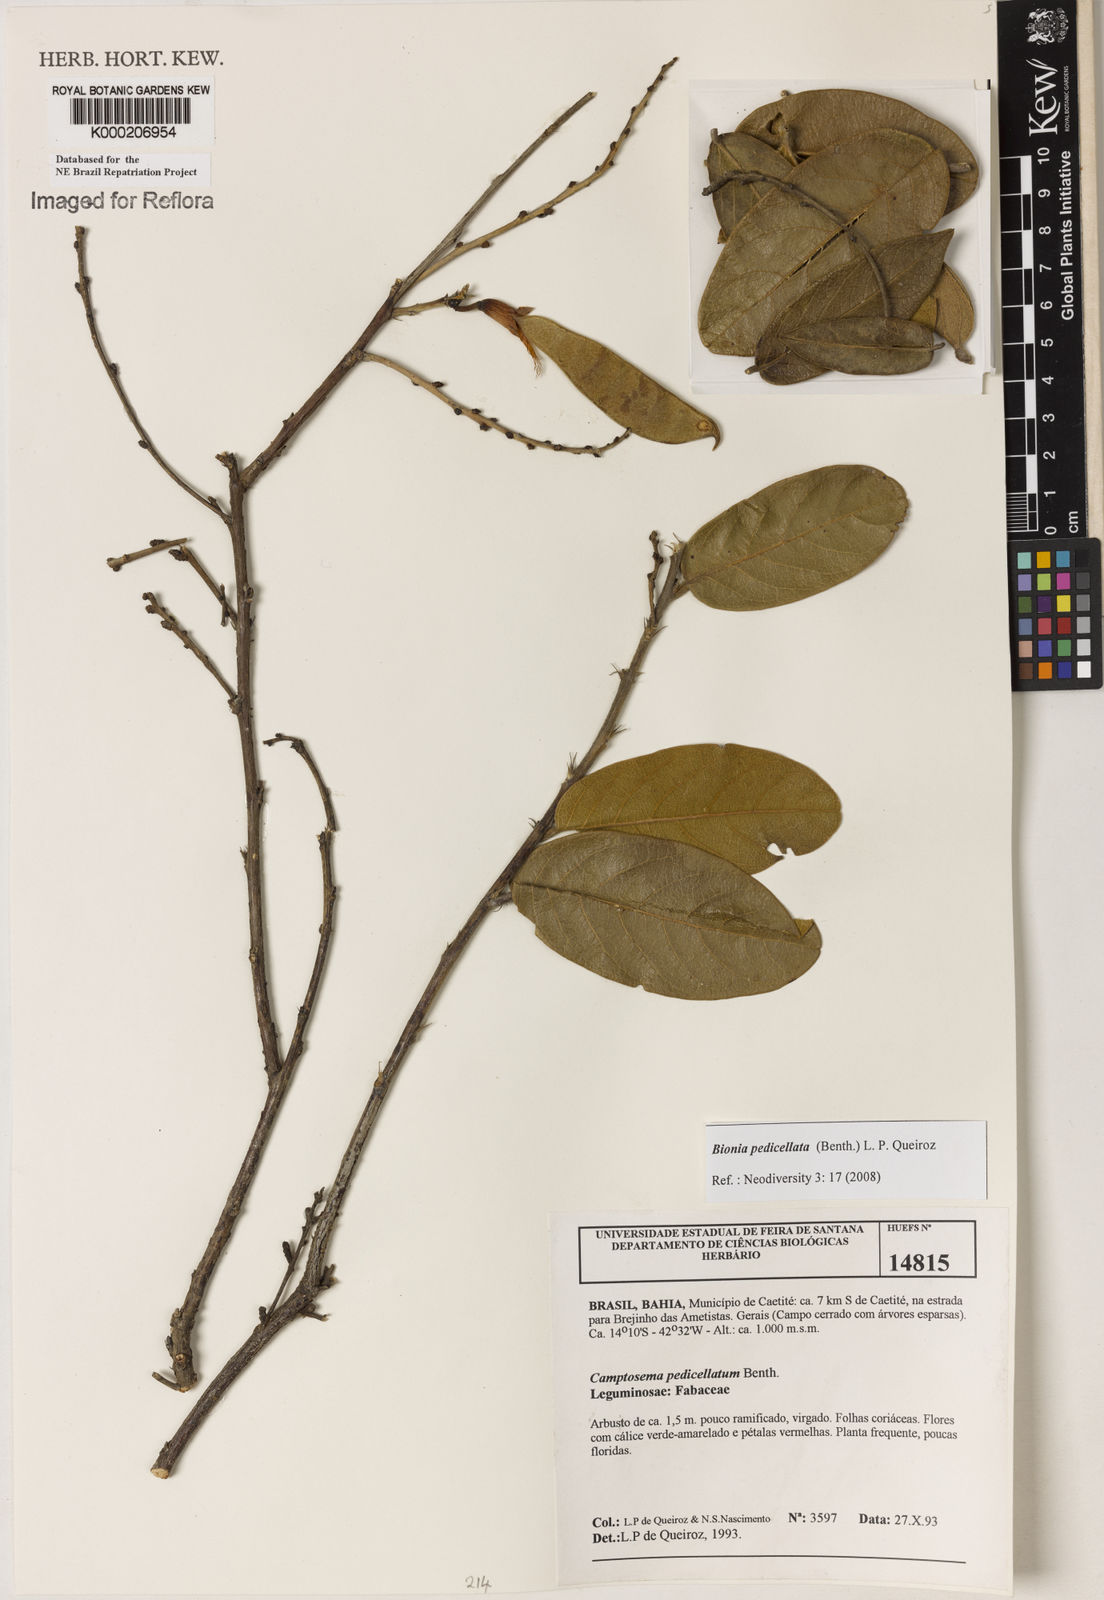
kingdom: Plantae
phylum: Tracheophyta
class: Magnoliopsida
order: Fabales
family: Fabaceae
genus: Camptosema
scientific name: Camptosema pedicellatum
